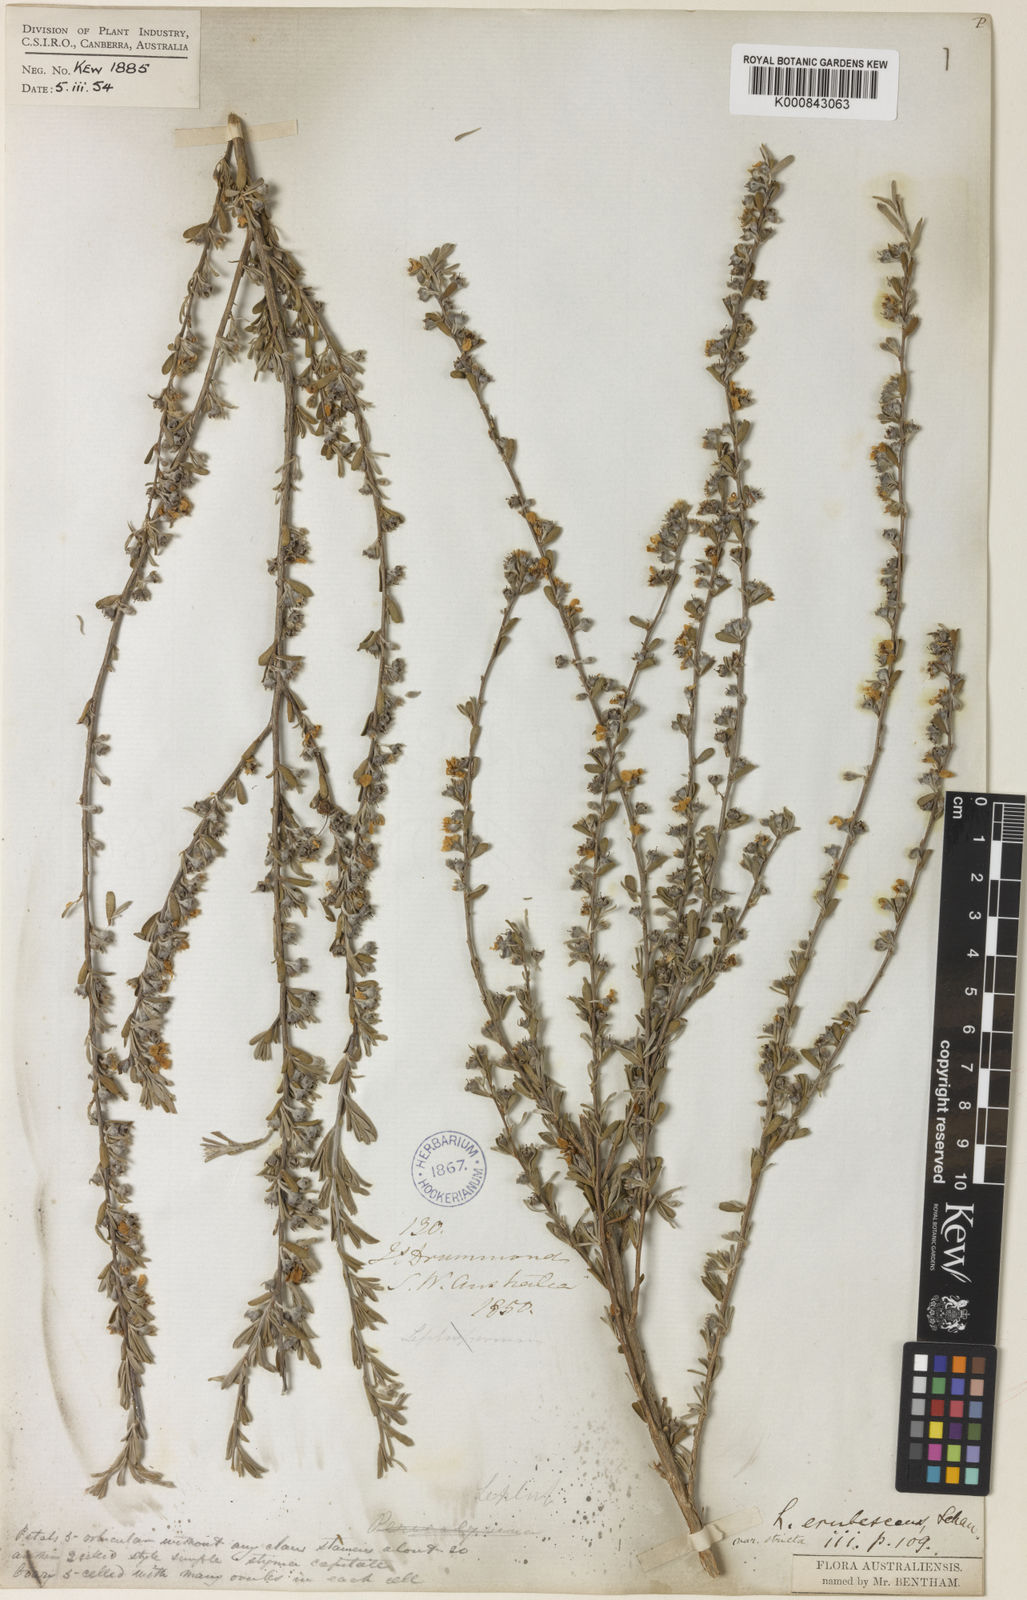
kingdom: Plantae
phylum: Tracheophyta
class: Magnoliopsida
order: Myrtales
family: Myrtaceae
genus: Leptospermum
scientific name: Leptospermum nitens
